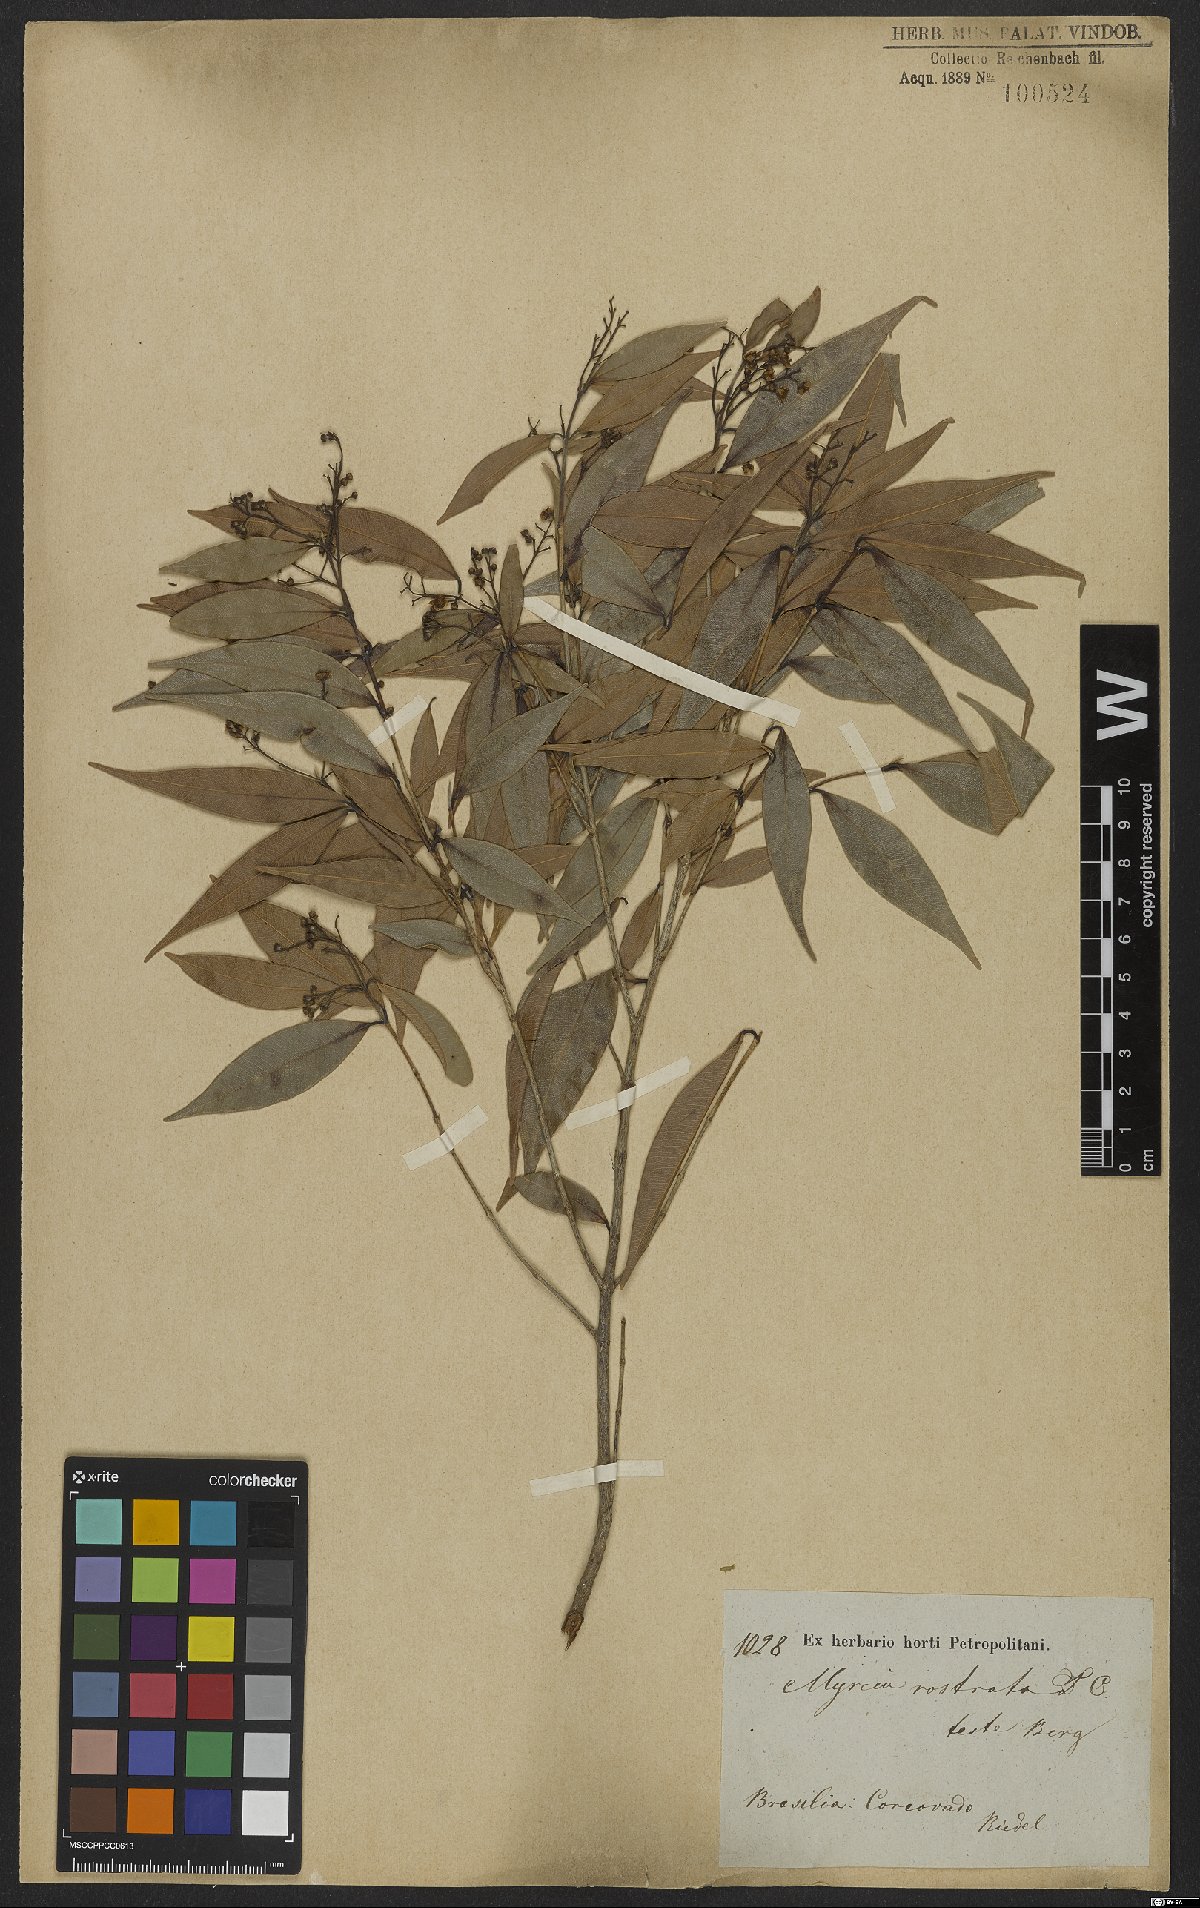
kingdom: Plantae
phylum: Tracheophyta
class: Magnoliopsida
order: Myrtales
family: Myrtaceae
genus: Myrcia
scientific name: Myrcia splendens
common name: Surinam cherry
